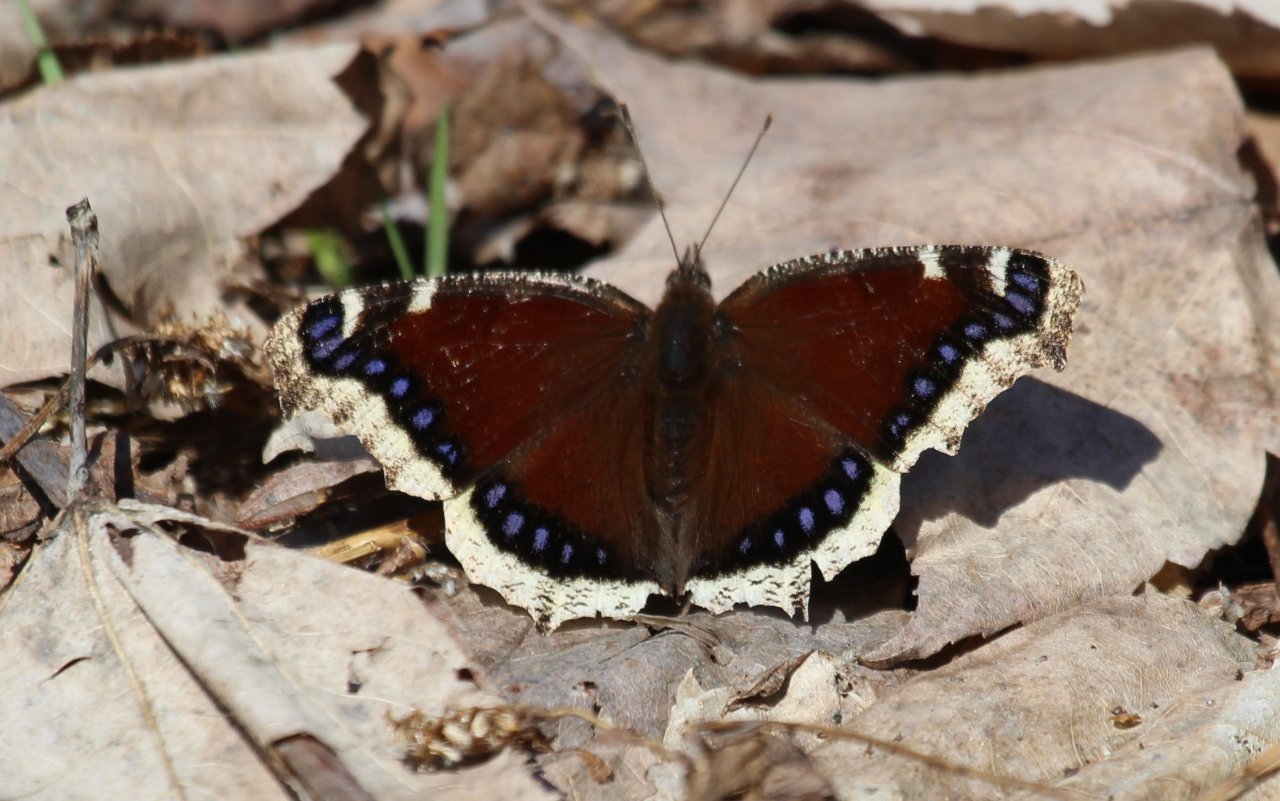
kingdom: Animalia
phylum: Arthropoda
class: Insecta
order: Lepidoptera
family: Nymphalidae
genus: Nymphalis
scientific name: Nymphalis antiopa
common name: Mourning Cloak
